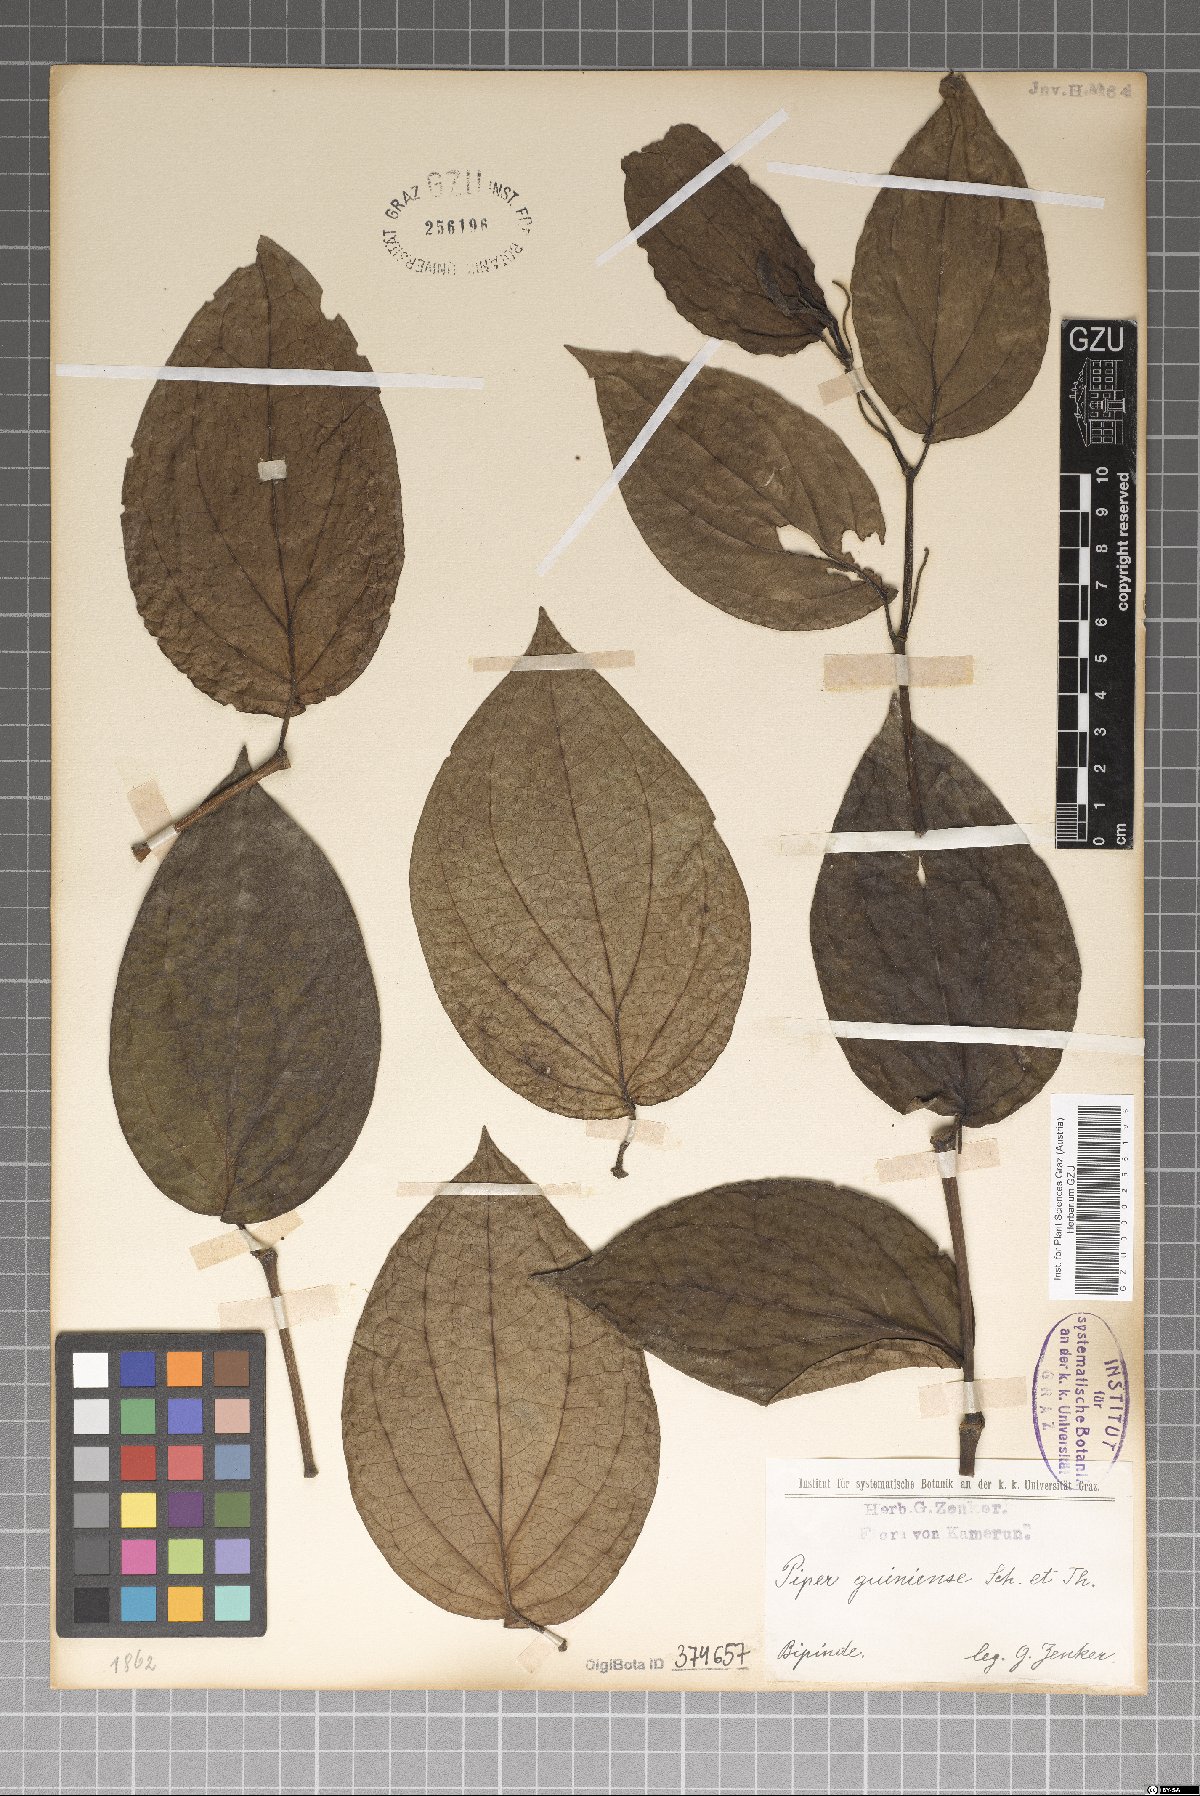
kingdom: Plantae
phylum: Tracheophyta
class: Magnoliopsida
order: Piperales
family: Piperaceae
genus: Piper
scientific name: Piper guineense
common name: Benin pepper
